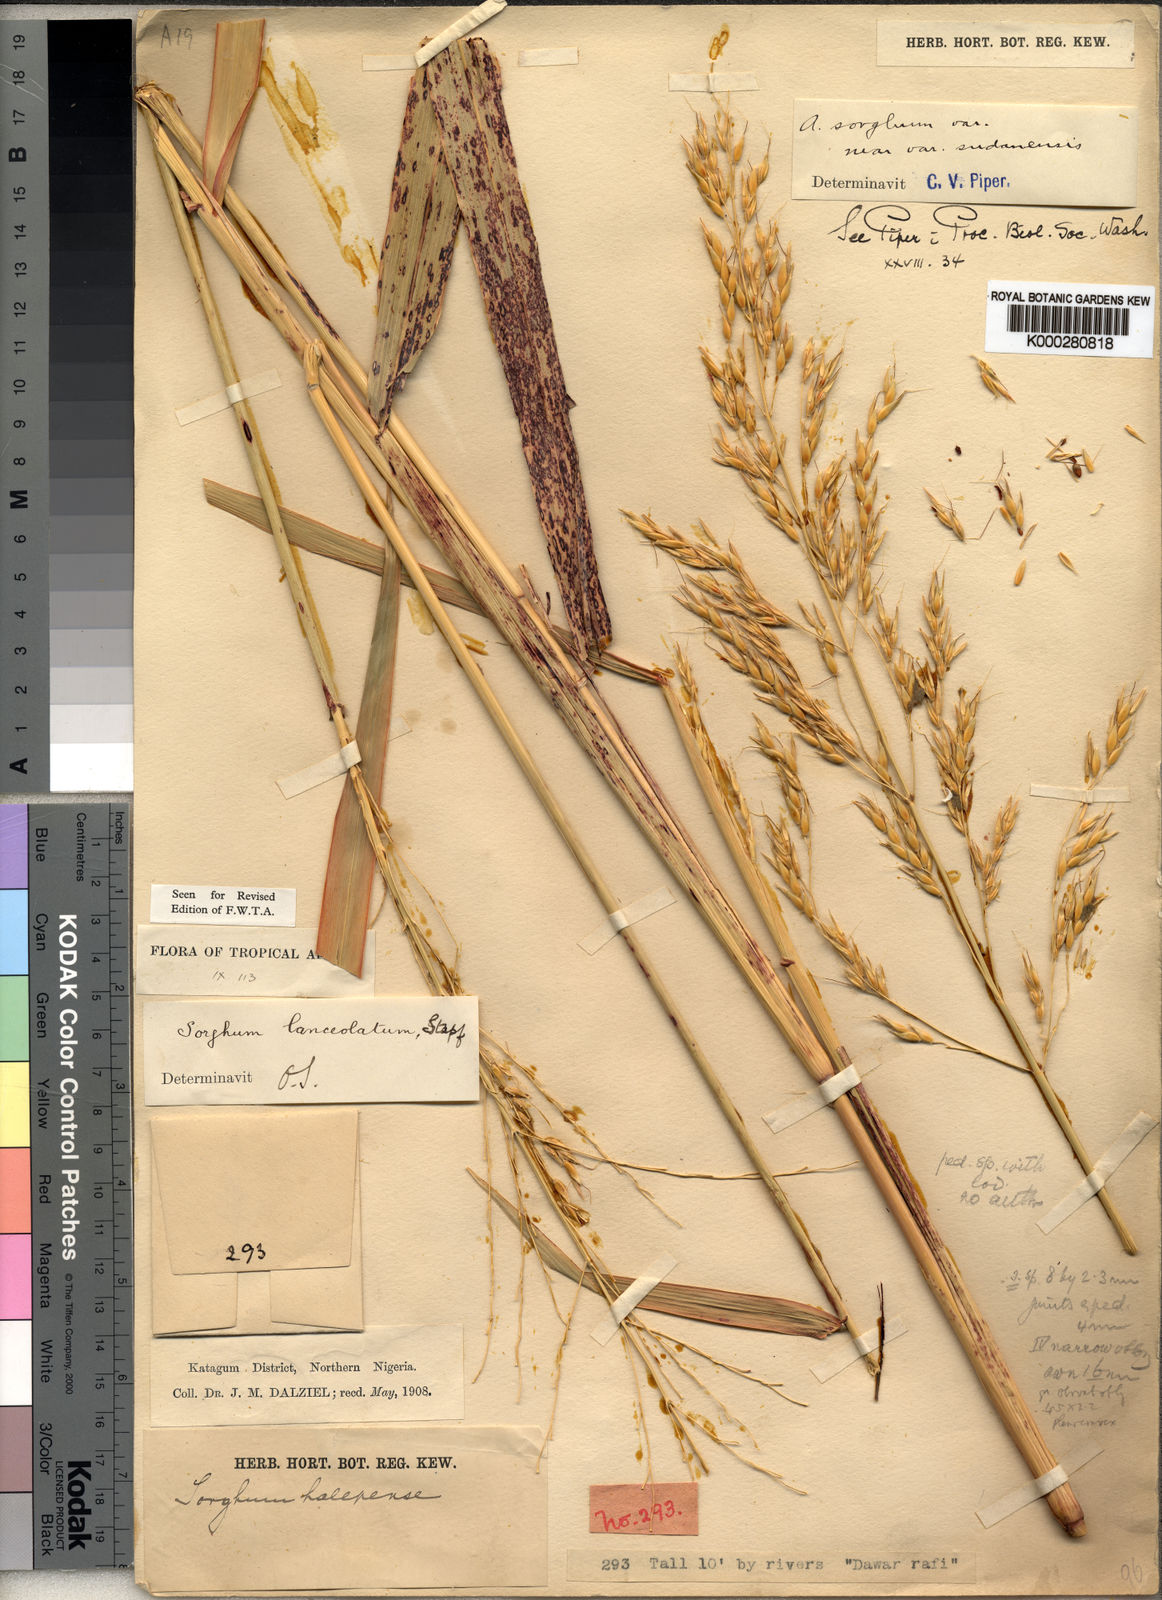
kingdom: Plantae
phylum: Tracheophyta
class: Liliopsida
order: Poales
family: Poaceae
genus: Sorghum
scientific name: Sorghum arundinaceum
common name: Sorghum
